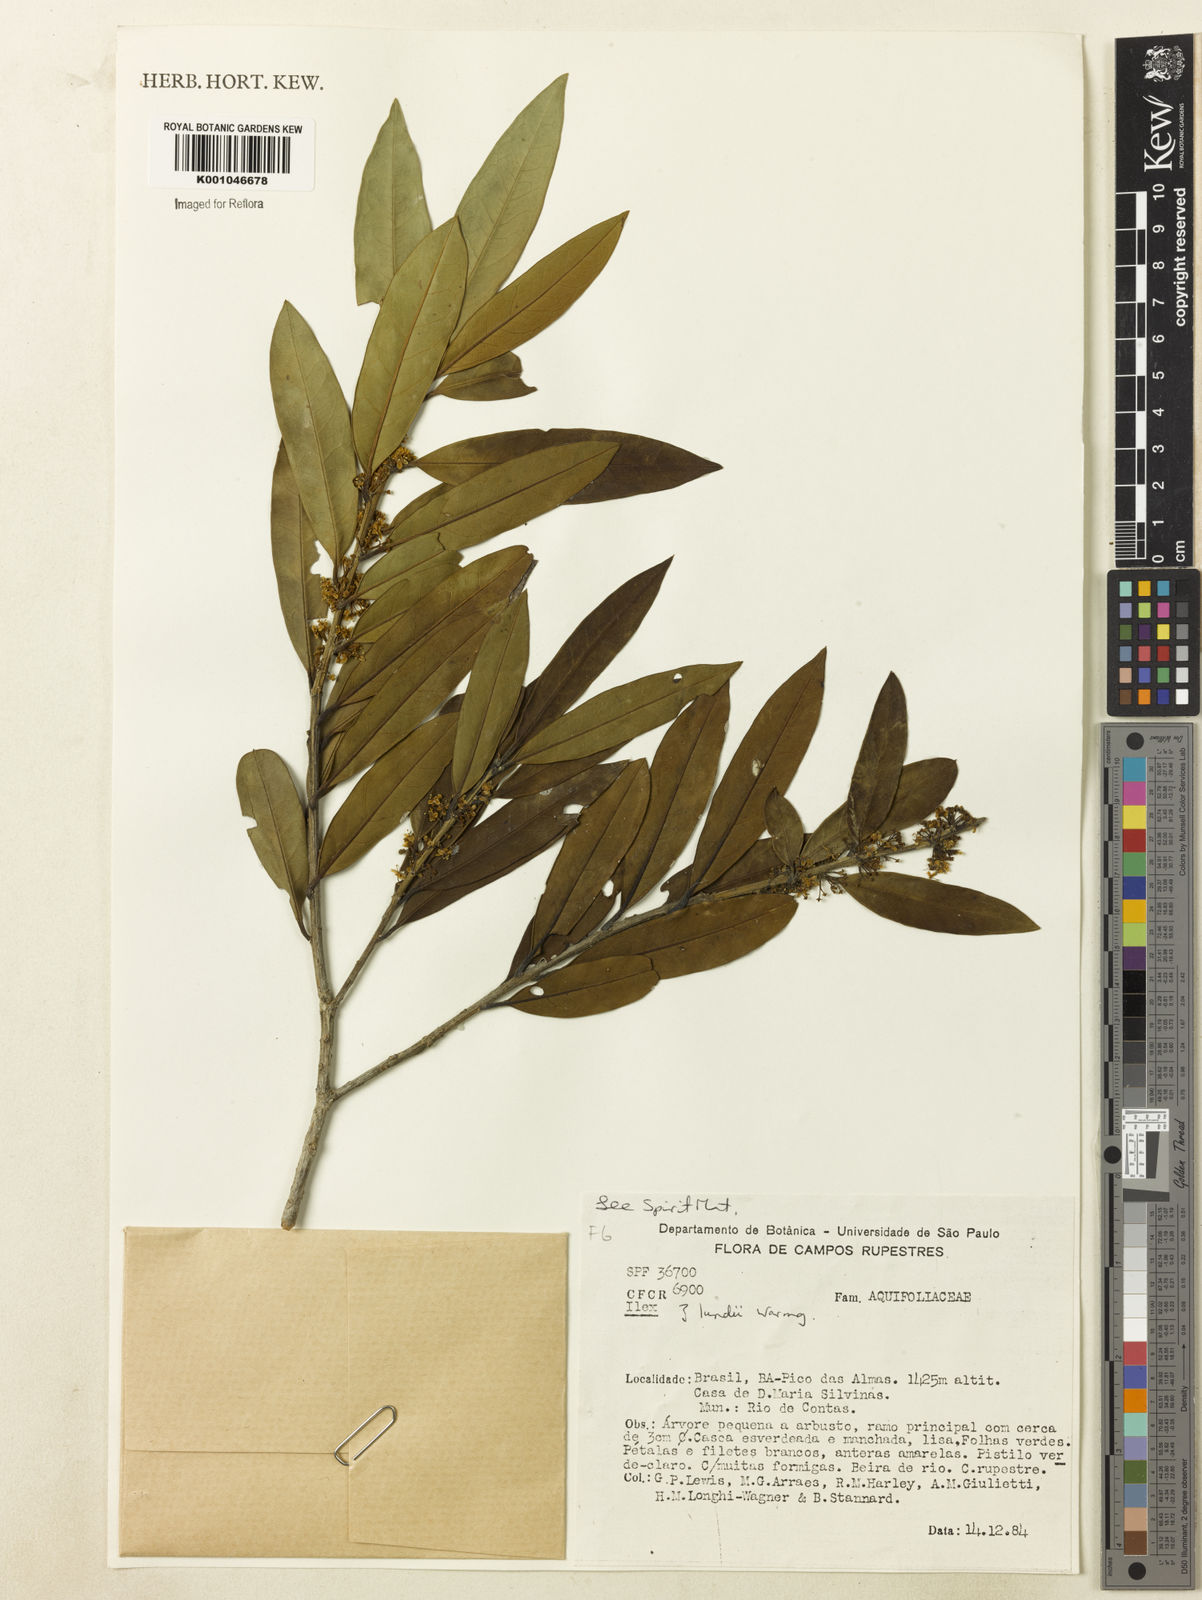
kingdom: Plantae
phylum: Tracheophyta
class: Magnoliopsida
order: Aquifoliales
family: Aquifoliaceae
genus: Ilex
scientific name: Ilex lundii
